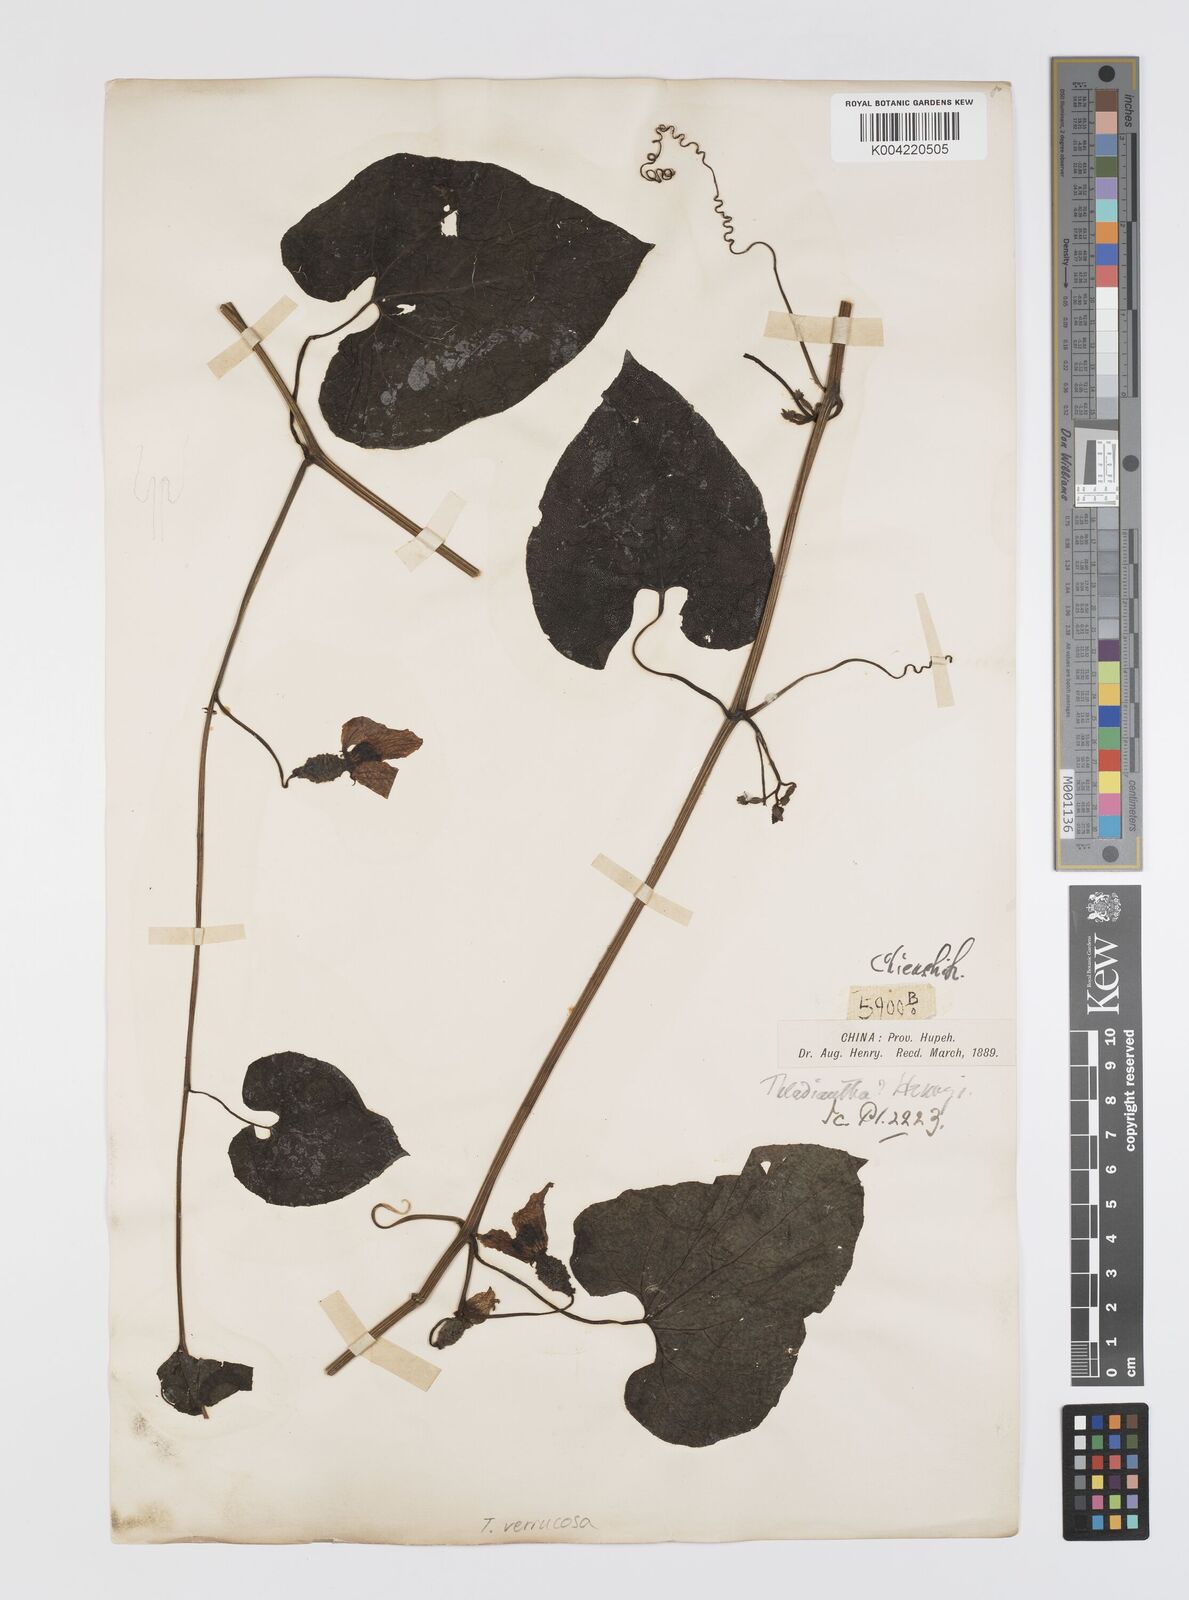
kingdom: Plantae
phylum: Tracheophyta
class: Magnoliopsida
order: Cucurbitales
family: Cucurbitaceae
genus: Thladiantha
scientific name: Thladiantha henryi
